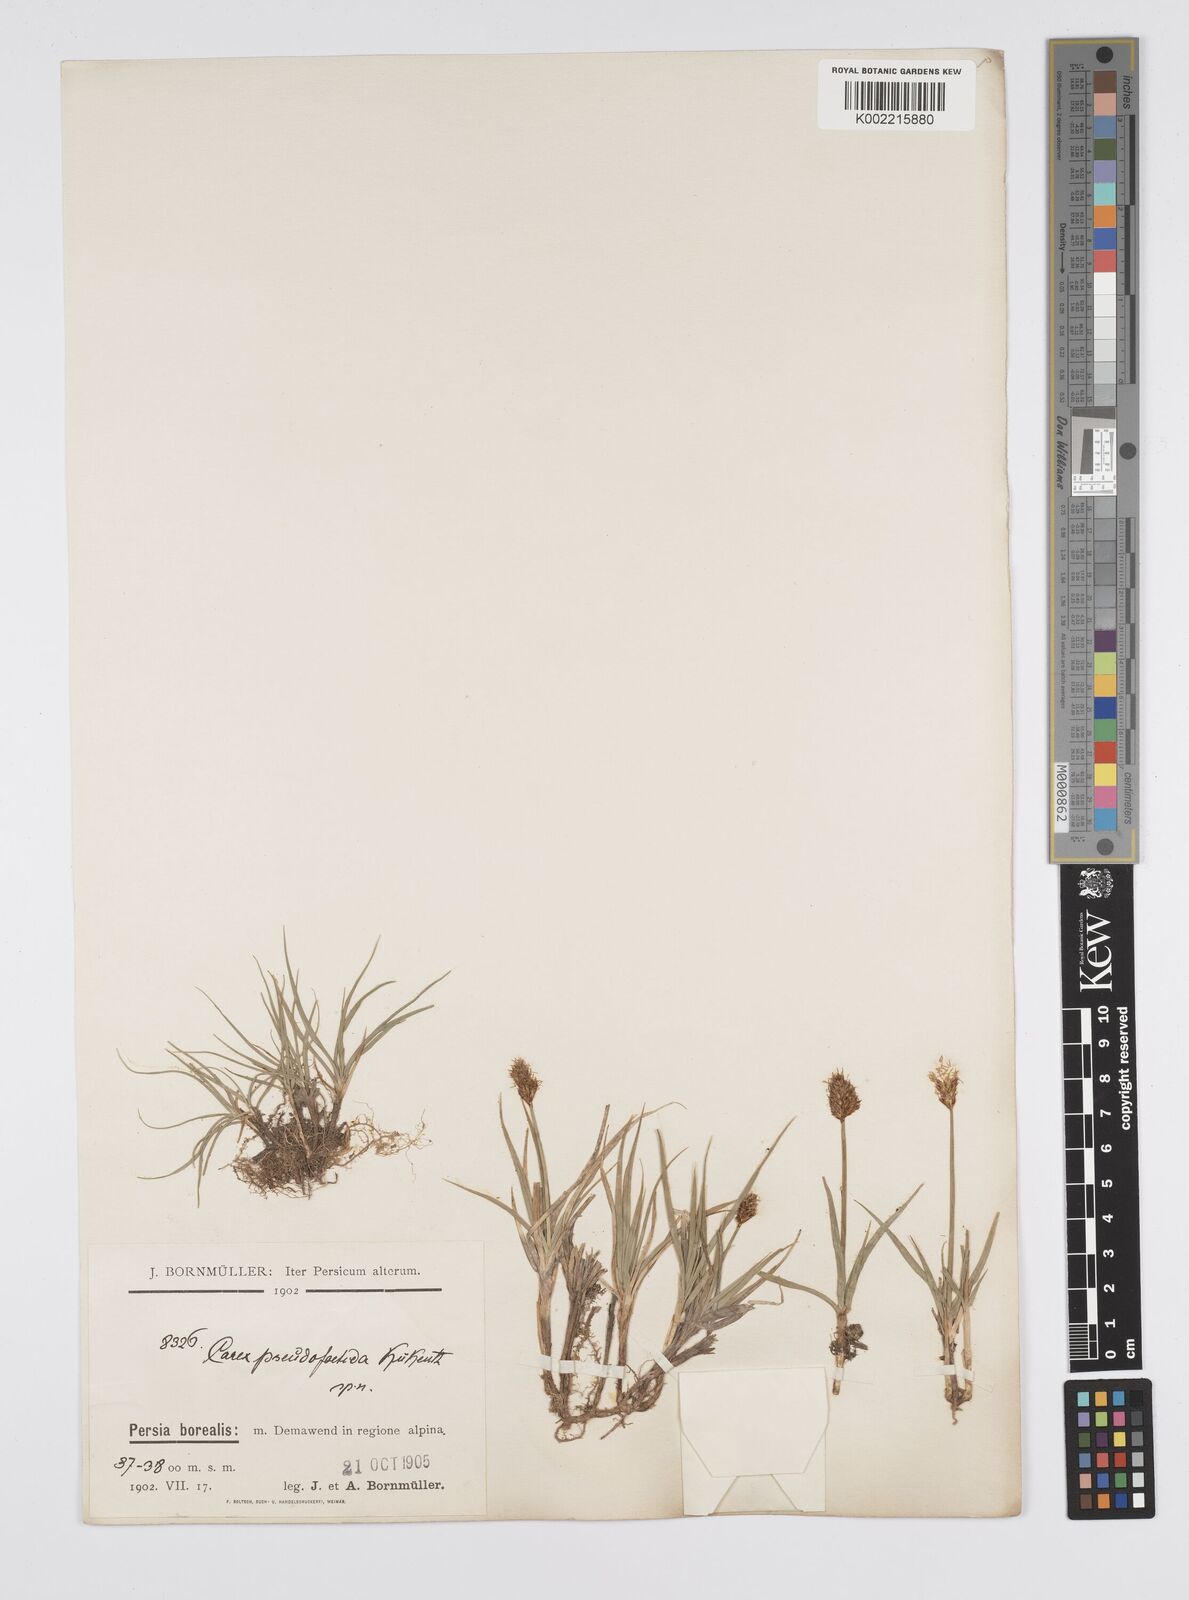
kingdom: Plantae
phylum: Tracheophyta
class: Liliopsida
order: Poales
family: Cyperaceae
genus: Carex
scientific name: Carex pseudofoetida
